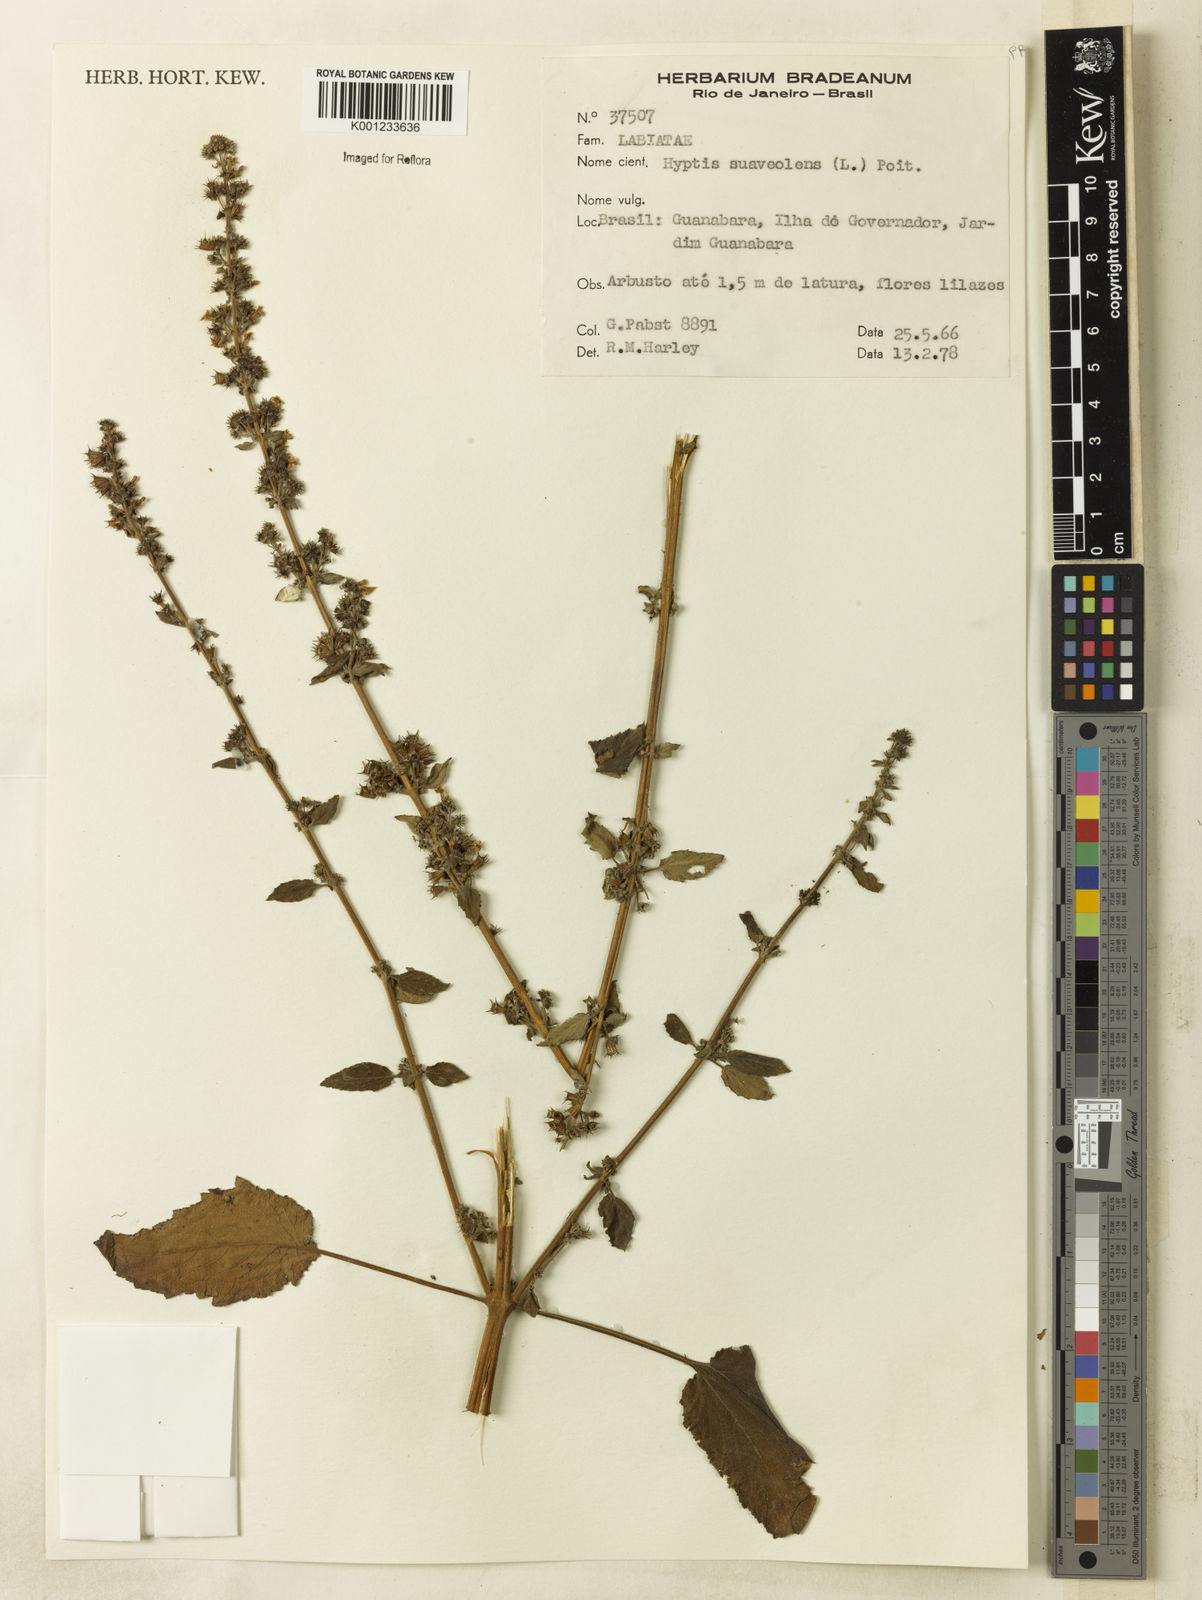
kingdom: Plantae
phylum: Tracheophyta
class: Magnoliopsida
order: Lamiales
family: Lamiaceae
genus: Mesosphaerum
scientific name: Mesosphaerum suaveolens
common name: Pignut
